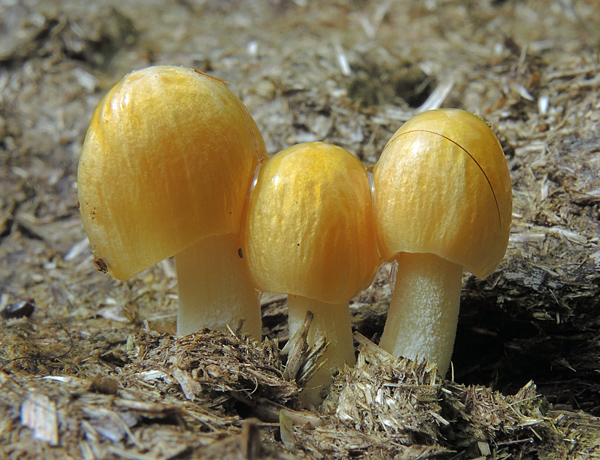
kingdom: Fungi
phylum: Basidiomycota
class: Agaricomycetes
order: Agaricales
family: Bolbitiaceae
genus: Bolbitius
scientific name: Bolbitius titubans
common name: almindelig gulhat
